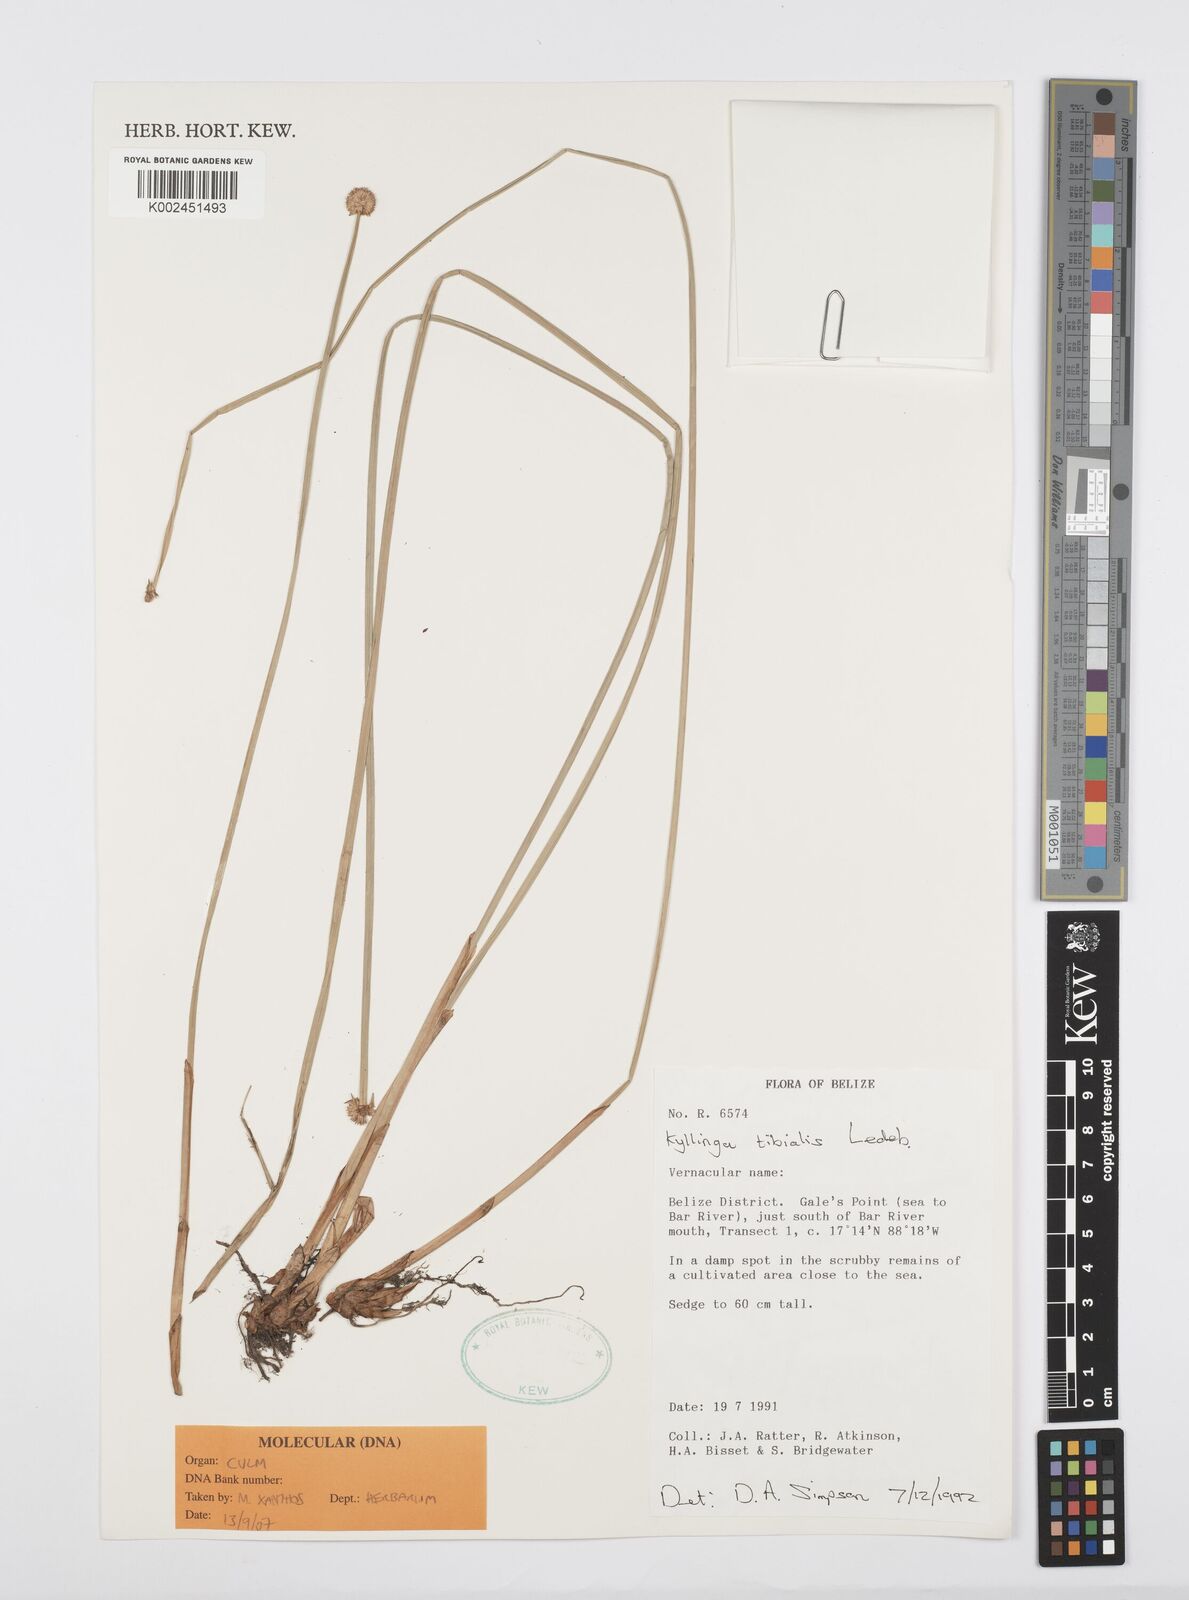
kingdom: Plantae
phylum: Tracheophyta
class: Liliopsida
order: Poales
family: Cyperaceae
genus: Cyperus
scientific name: Cyperus obtusatus
